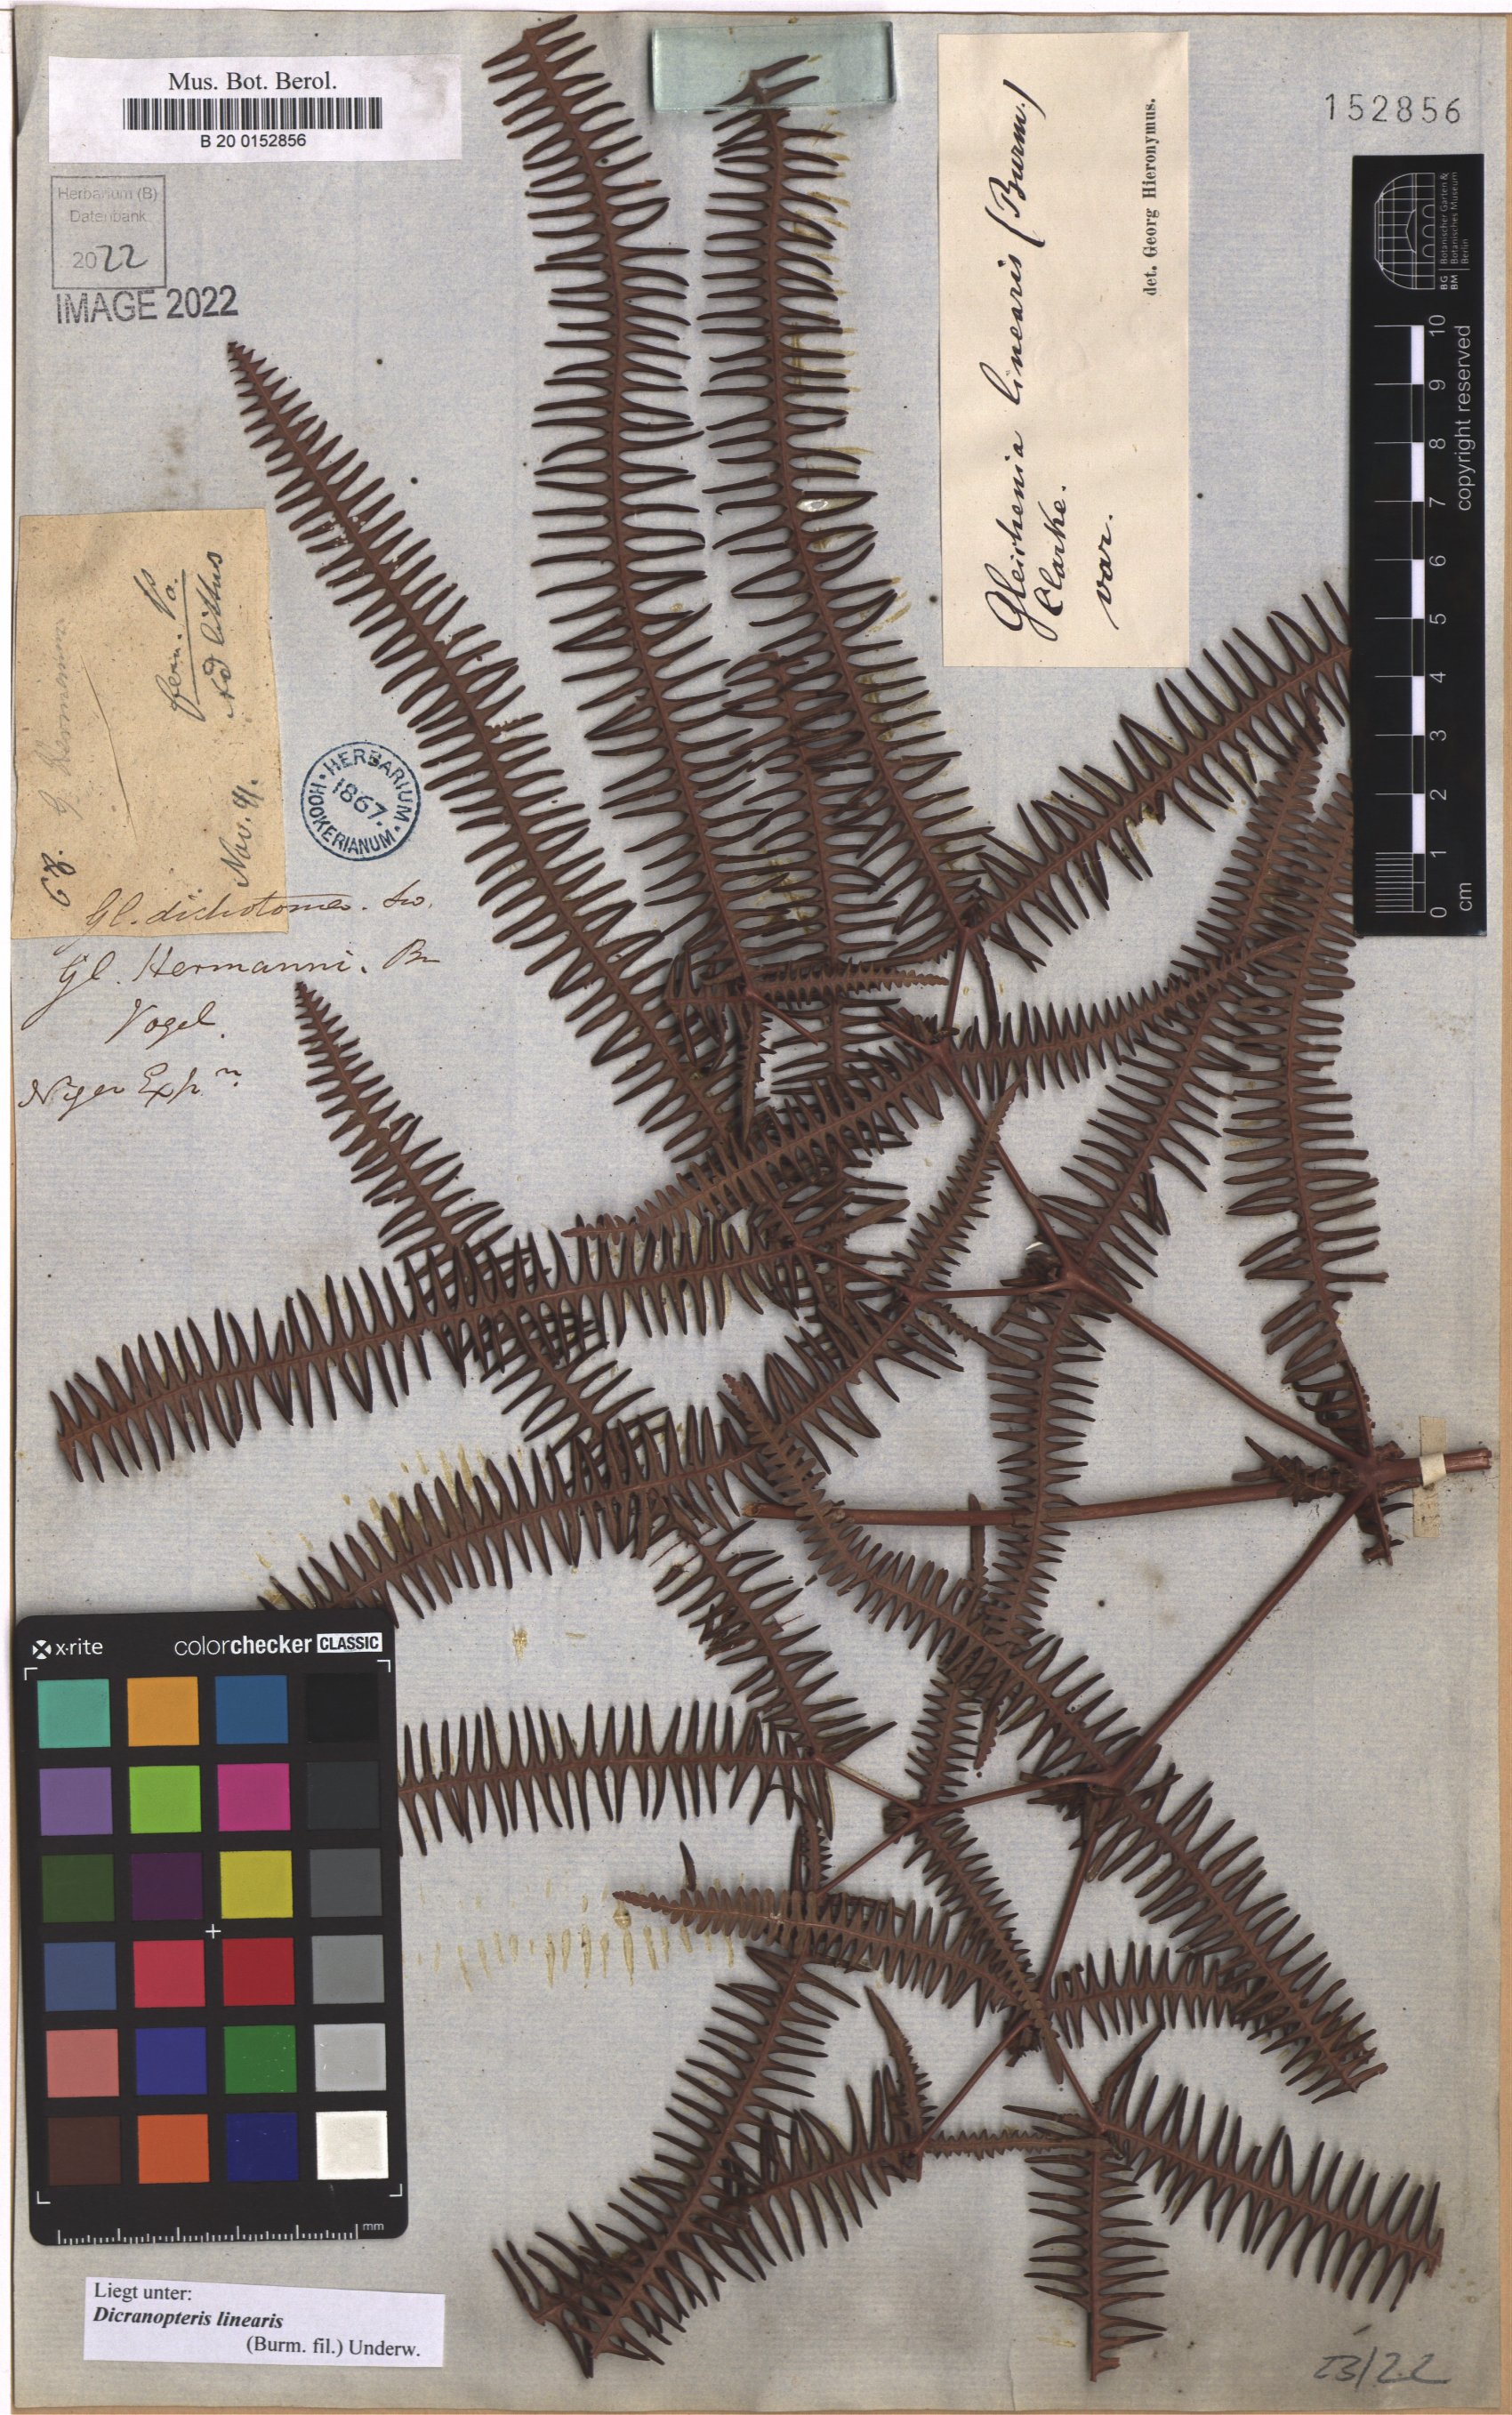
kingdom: Plantae
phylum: Tracheophyta
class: Polypodiopsida
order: Gleicheniales
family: Gleicheniaceae
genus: Dicranopteris
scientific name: Dicranopteris linearis
